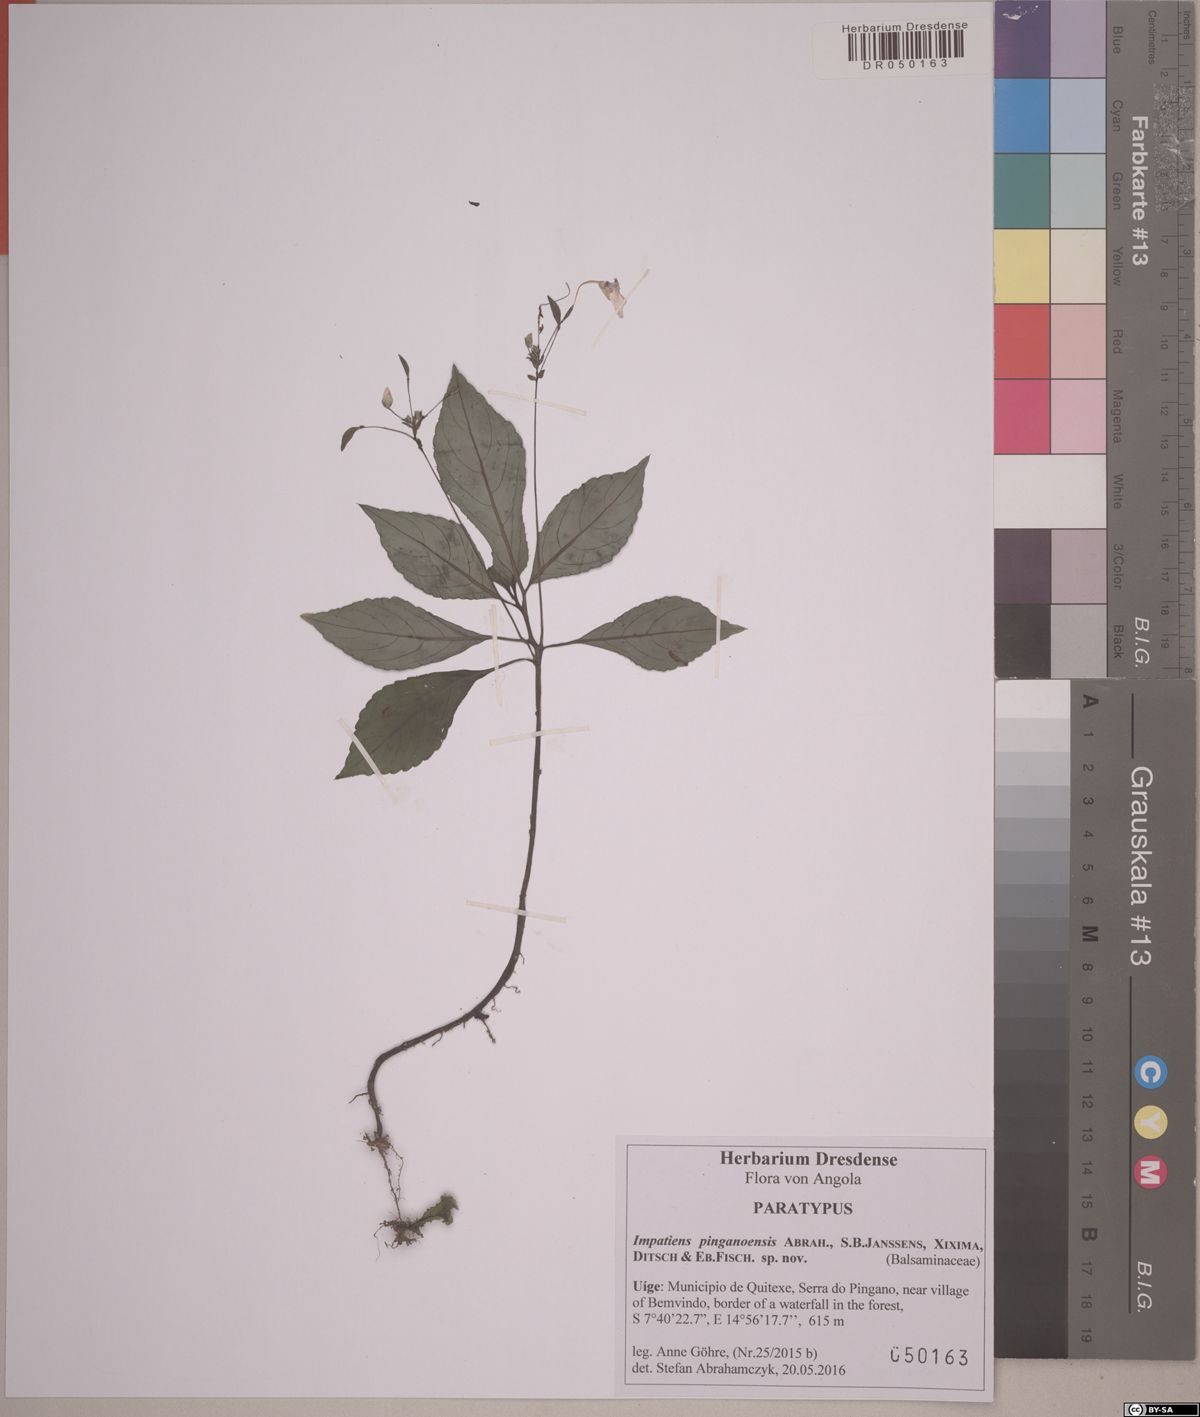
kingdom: Plantae
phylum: Tracheophyta
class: Magnoliopsida
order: Ericales
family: Balsaminaceae
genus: Impatiens
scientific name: Impatiens pinganoensis
